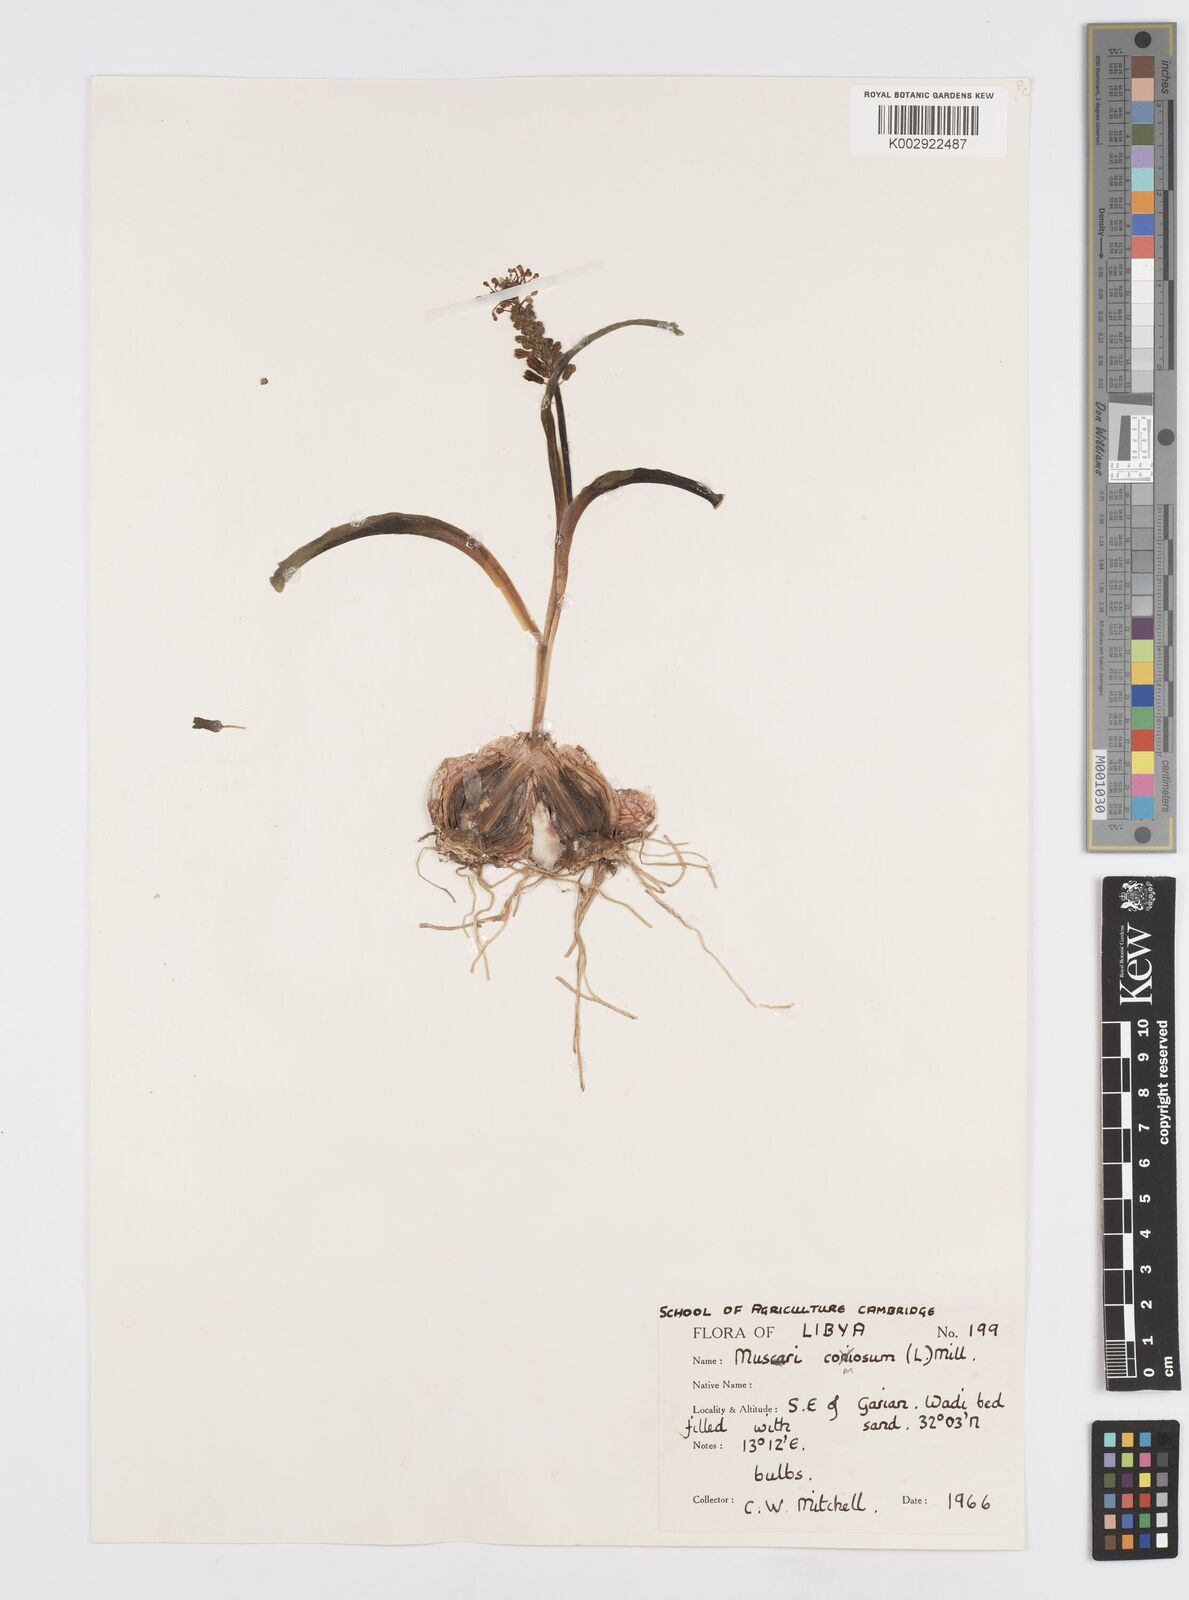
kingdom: Plantae
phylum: Tracheophyta
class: Liliopsida
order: Asparagales
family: Asparagaceae
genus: Muscari
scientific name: Muscari comosum
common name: Tassel hyacinth
